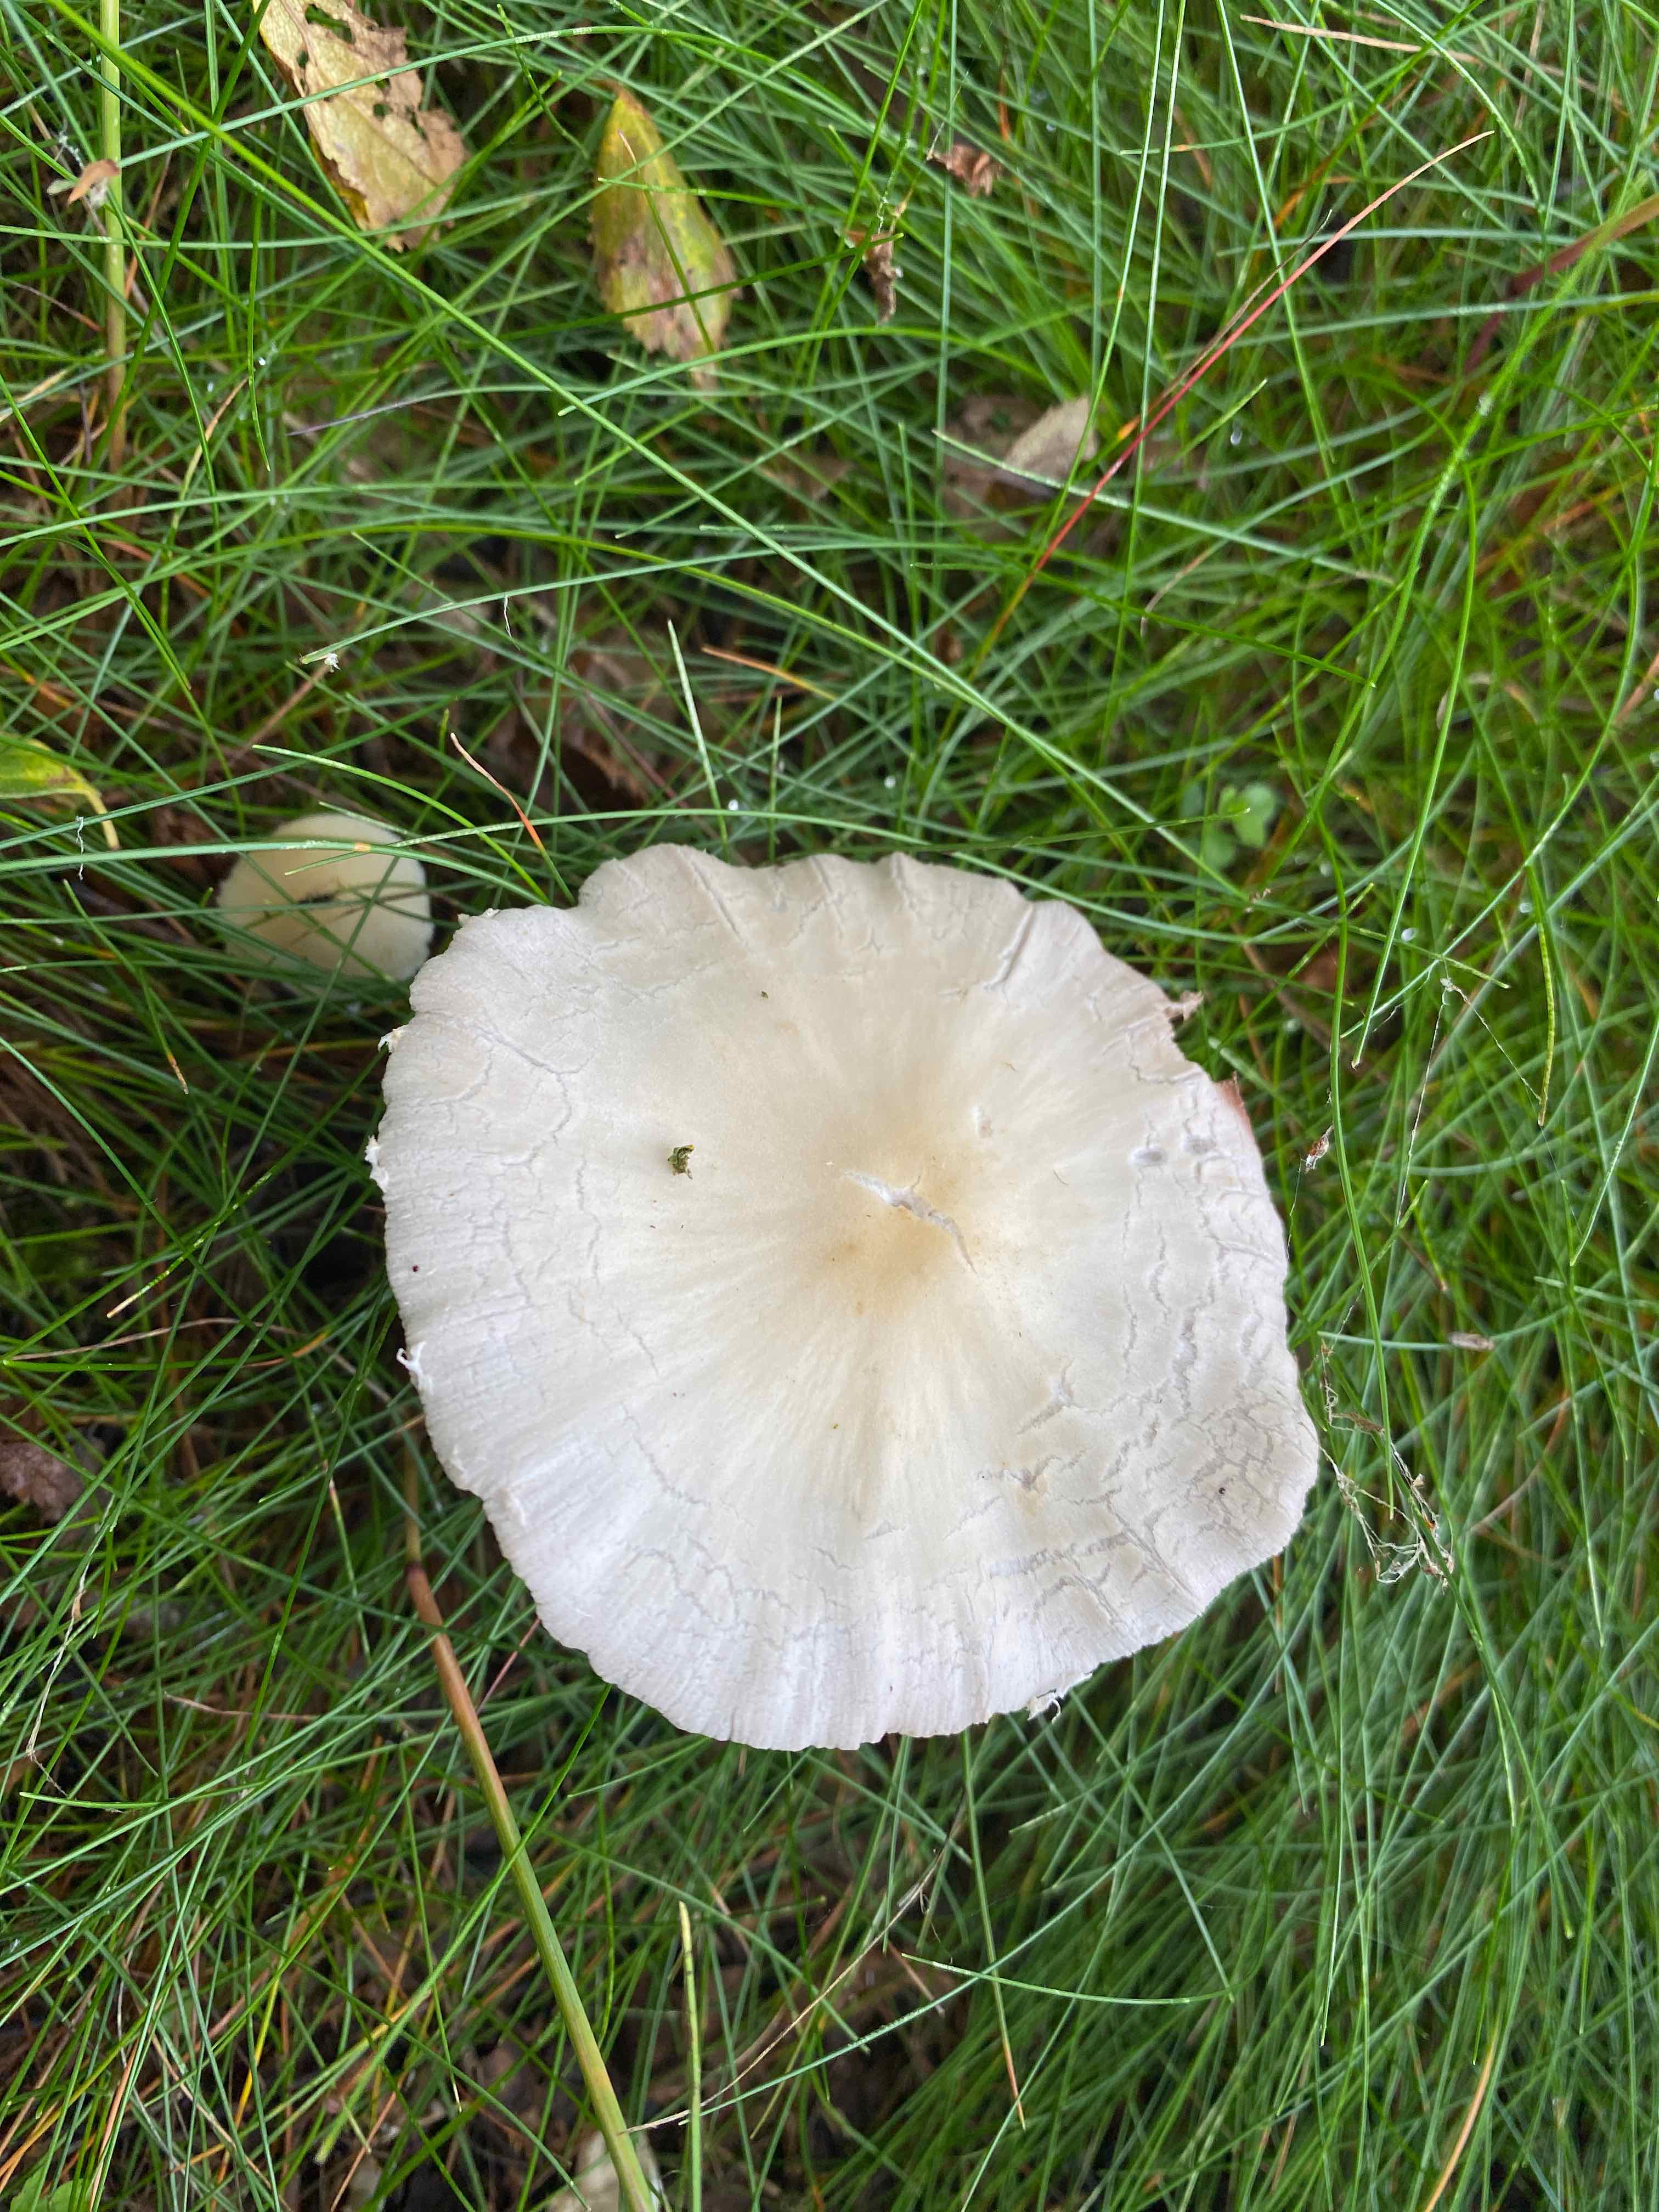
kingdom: Fungi
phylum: Basidiomycota
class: Agaricomycetes
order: Agaricales
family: Psathyrellaceae
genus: Candolleomyces
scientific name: Candolleomyces candolleanus
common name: Candolles mørkhat
